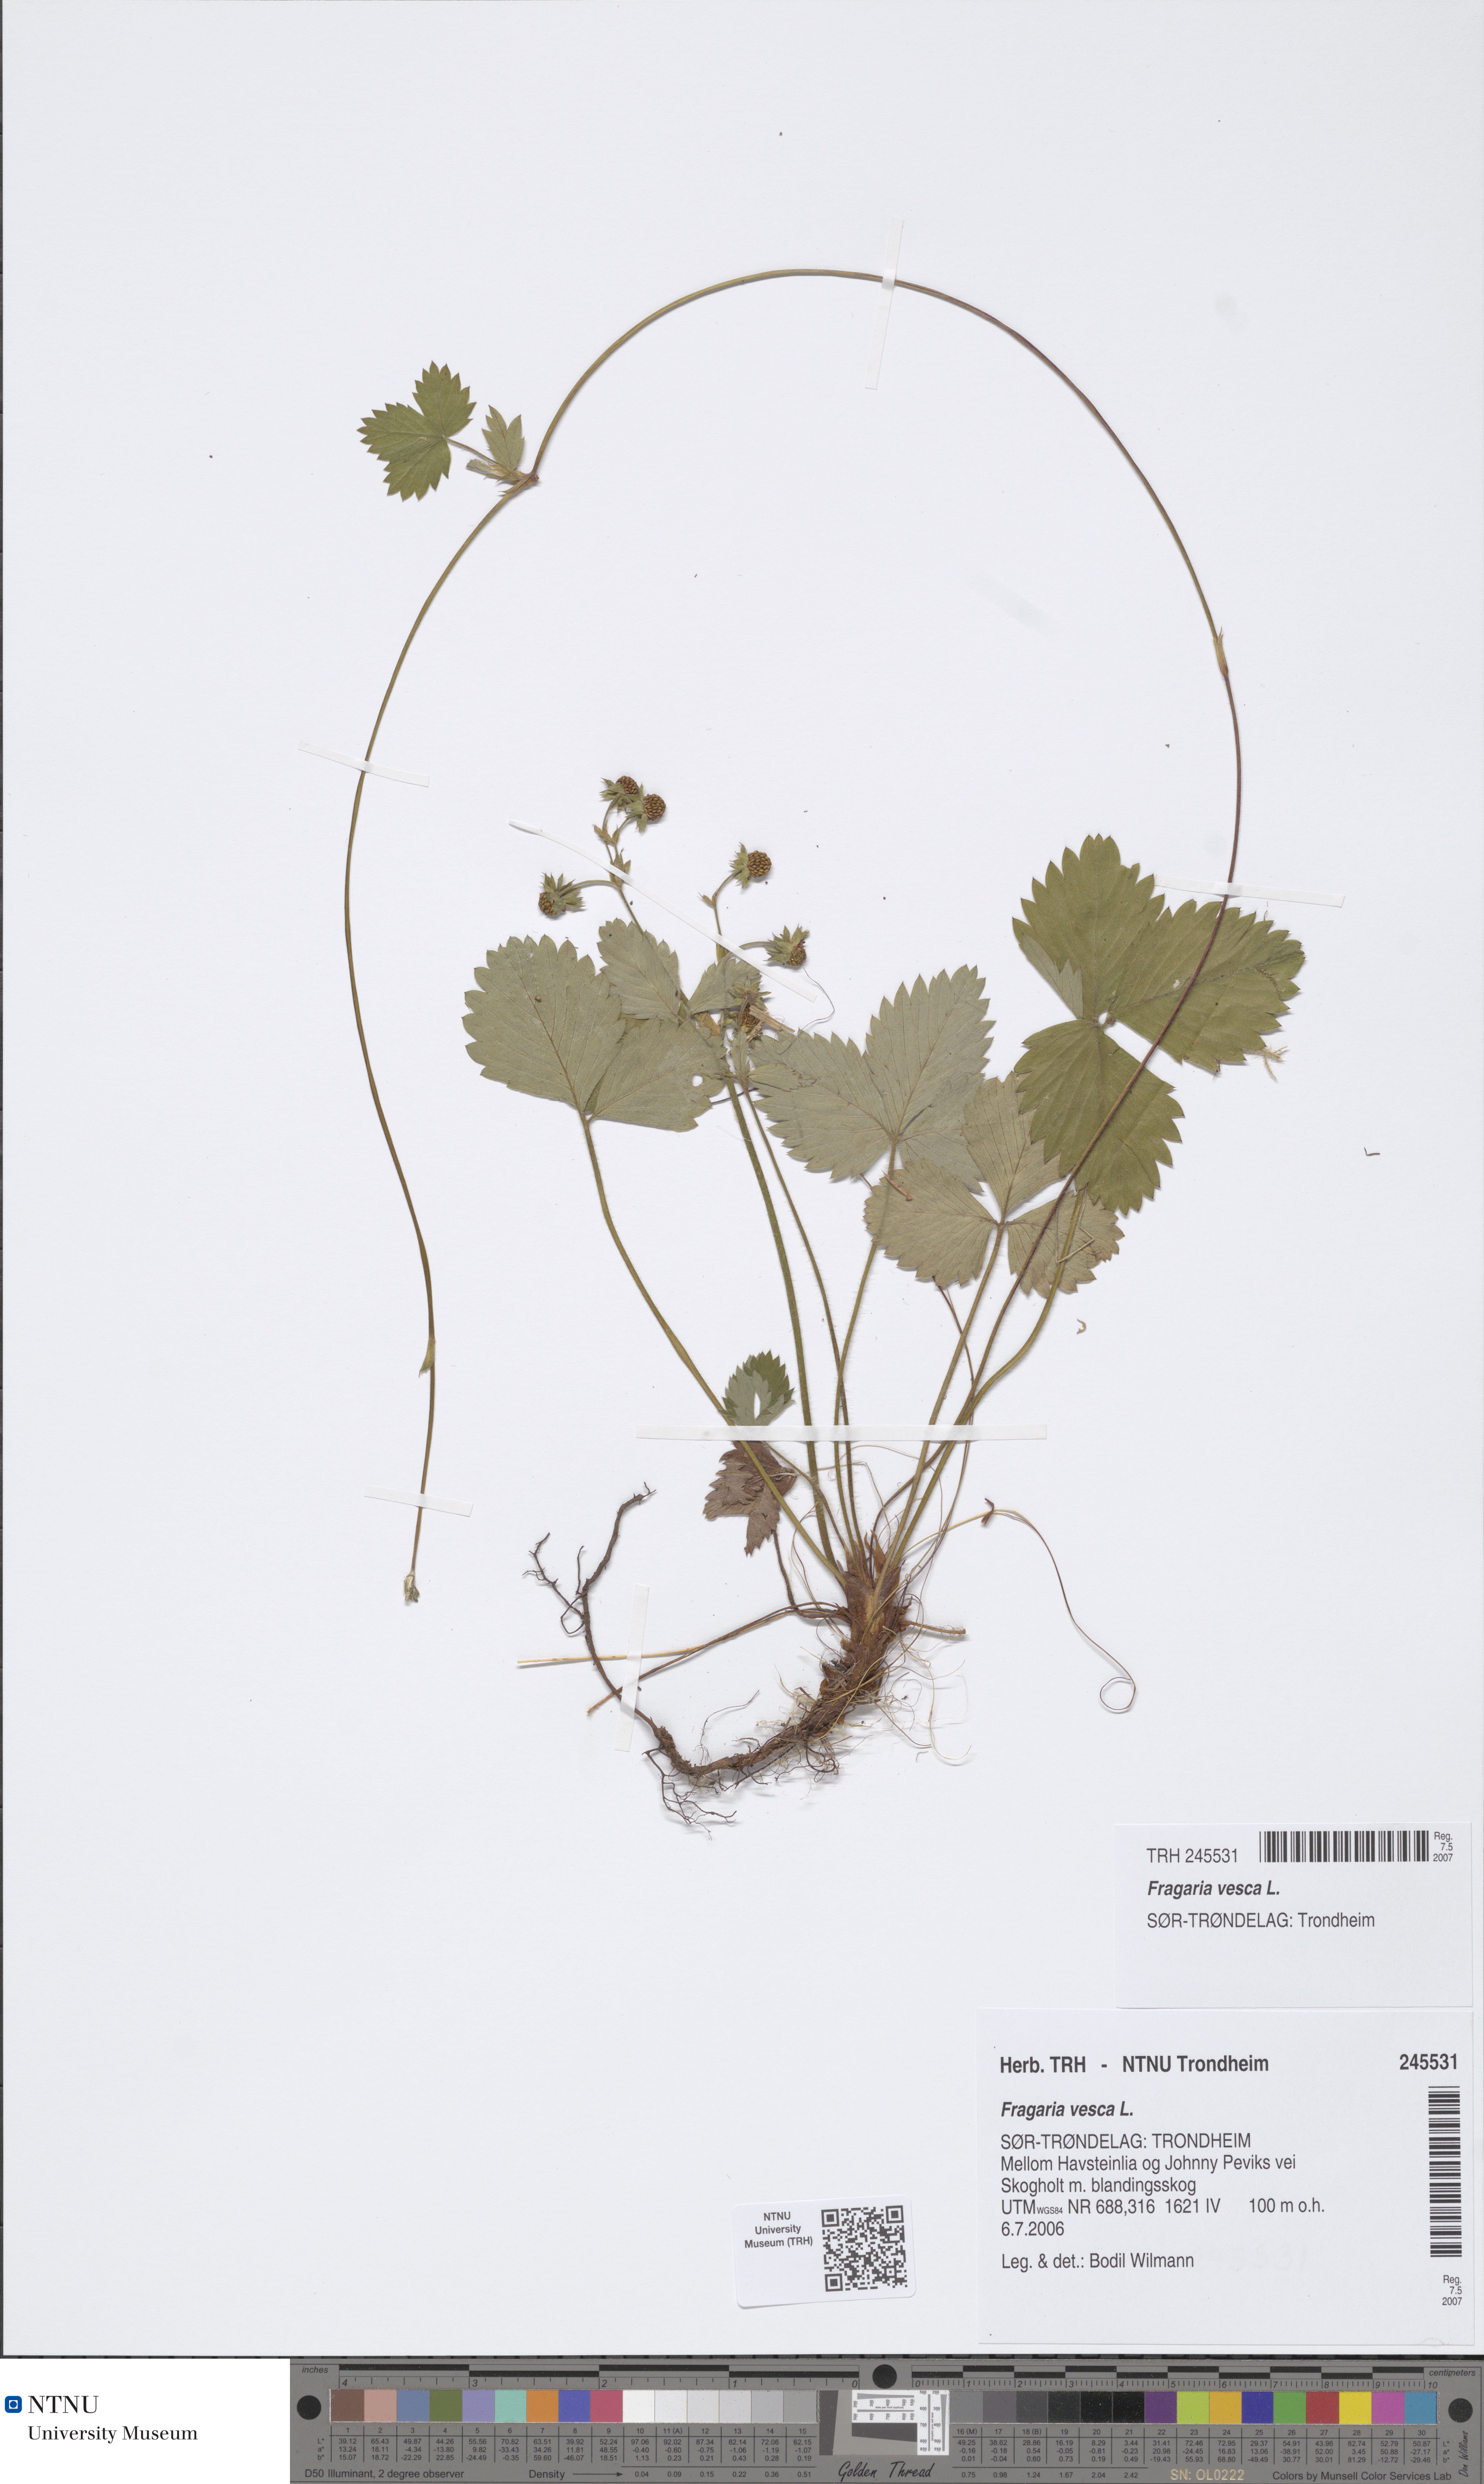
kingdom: Plantae
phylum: Tracheophyta
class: Magnoliopsida
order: Rosales
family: Rosaceae
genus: Fragaria
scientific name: Fragaria vesca
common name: Wild strawberry
